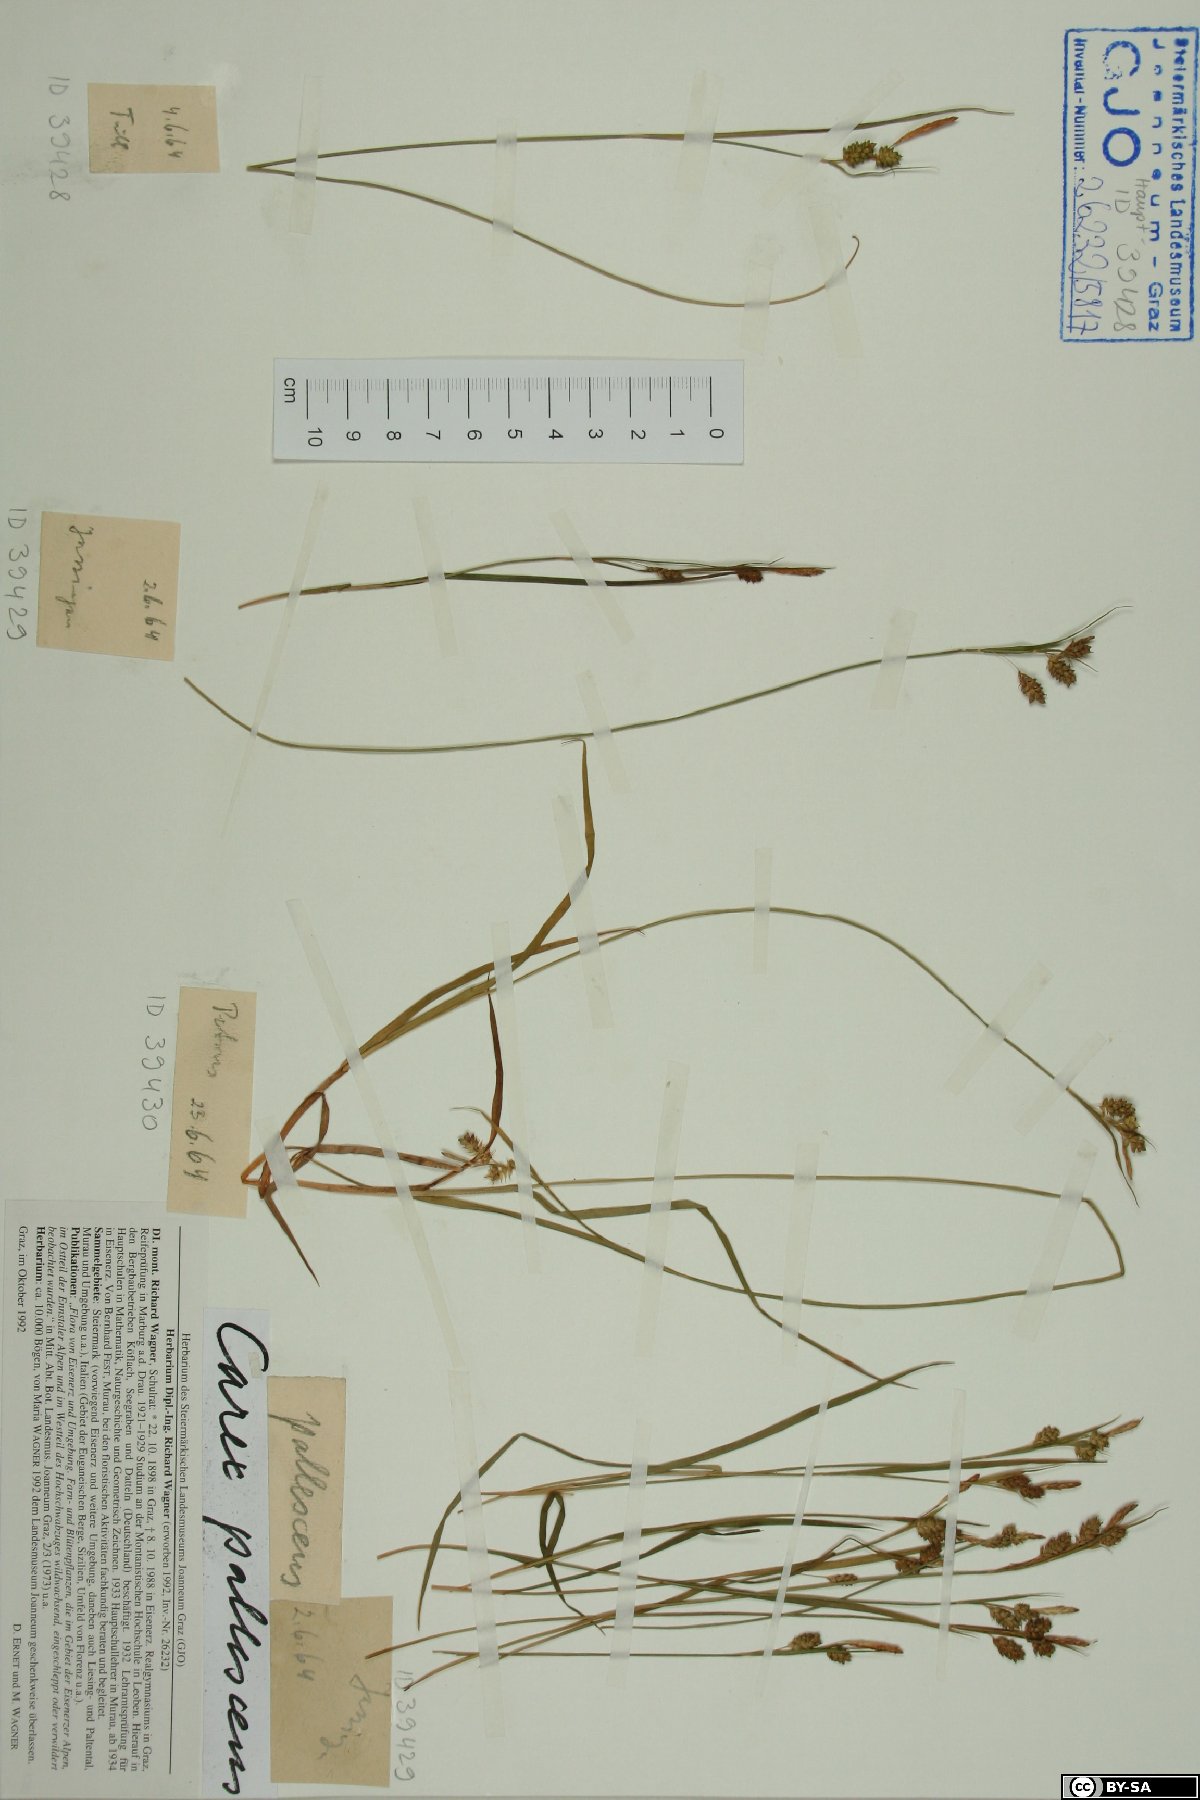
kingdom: Plantae
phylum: Tracheophyta
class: Liliopsida
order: Poales
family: Cyperaceae
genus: Carex
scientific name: Carex pallescens
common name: Pale sedge
